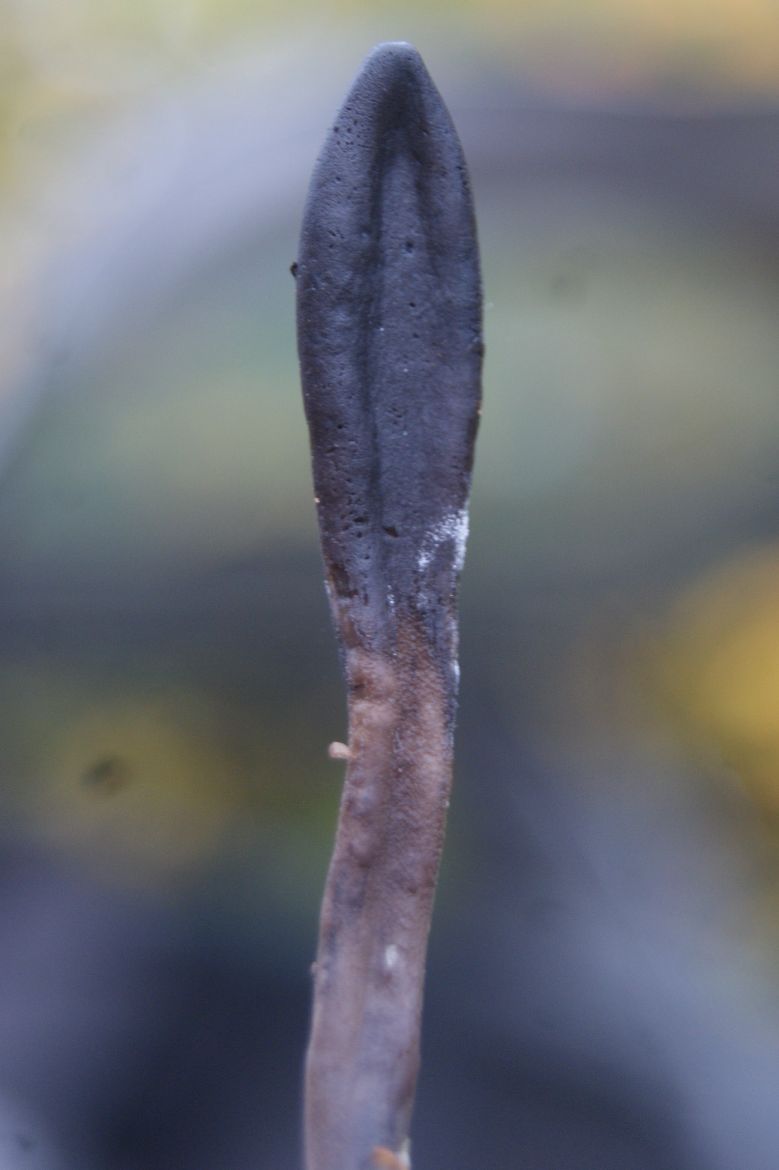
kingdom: Fungi
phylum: Ascomycota
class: Geoglossomycetes
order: Geoglossales
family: Geoglossaceae
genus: Geoglossum
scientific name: Geoglossum fallax
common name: småskællet jordtunge
